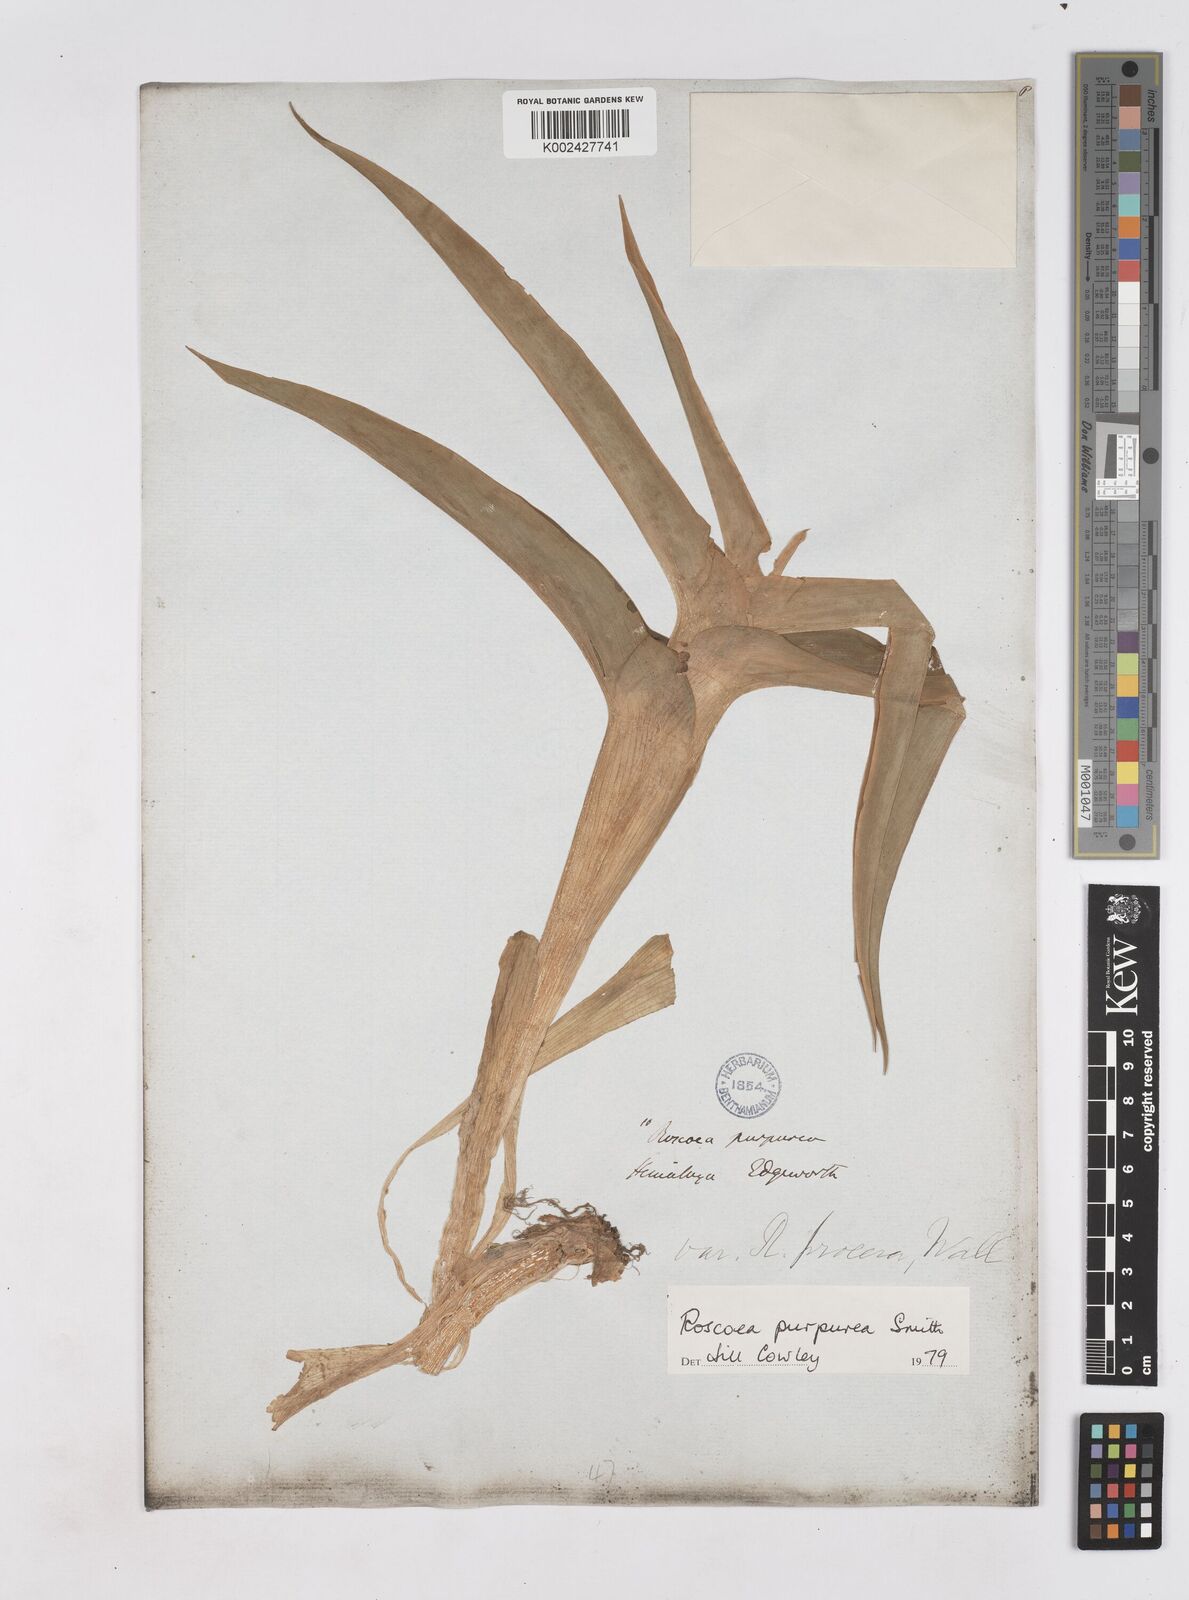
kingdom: Plantae
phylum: Tracheophyta
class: Liliopsida
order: Zingiberales
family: Zingiberaceae
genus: Roscoea
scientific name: Roscoea purpurea
